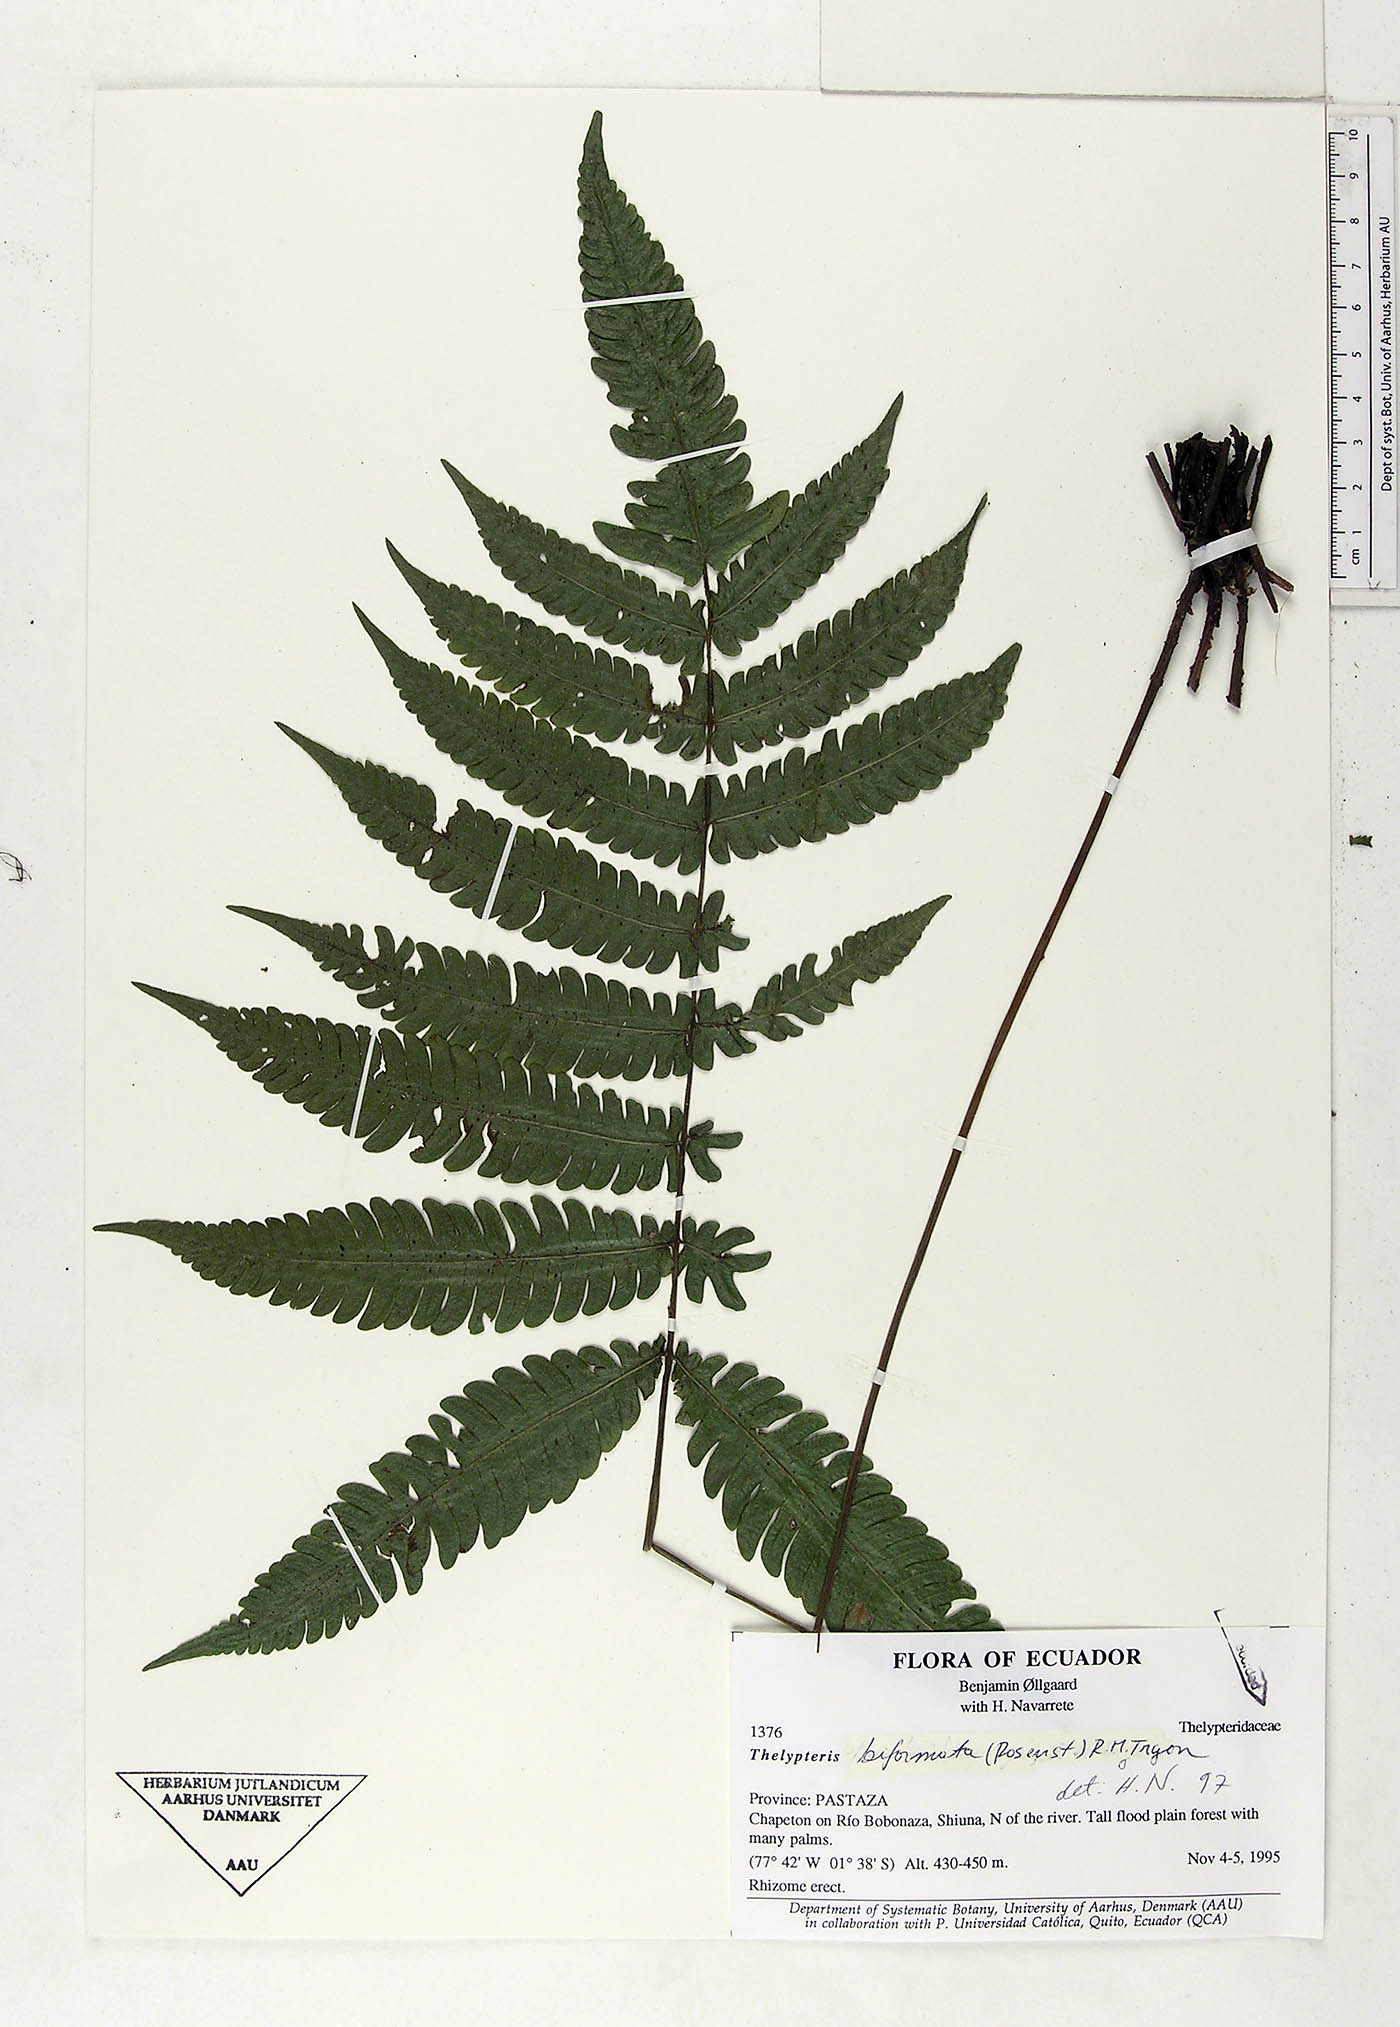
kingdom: Plantae
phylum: Tracheophyta
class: Polypodiopsida
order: Polypodiales
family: Thelypteridaceae
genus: Goniopteris
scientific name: Goniopteris biformata
